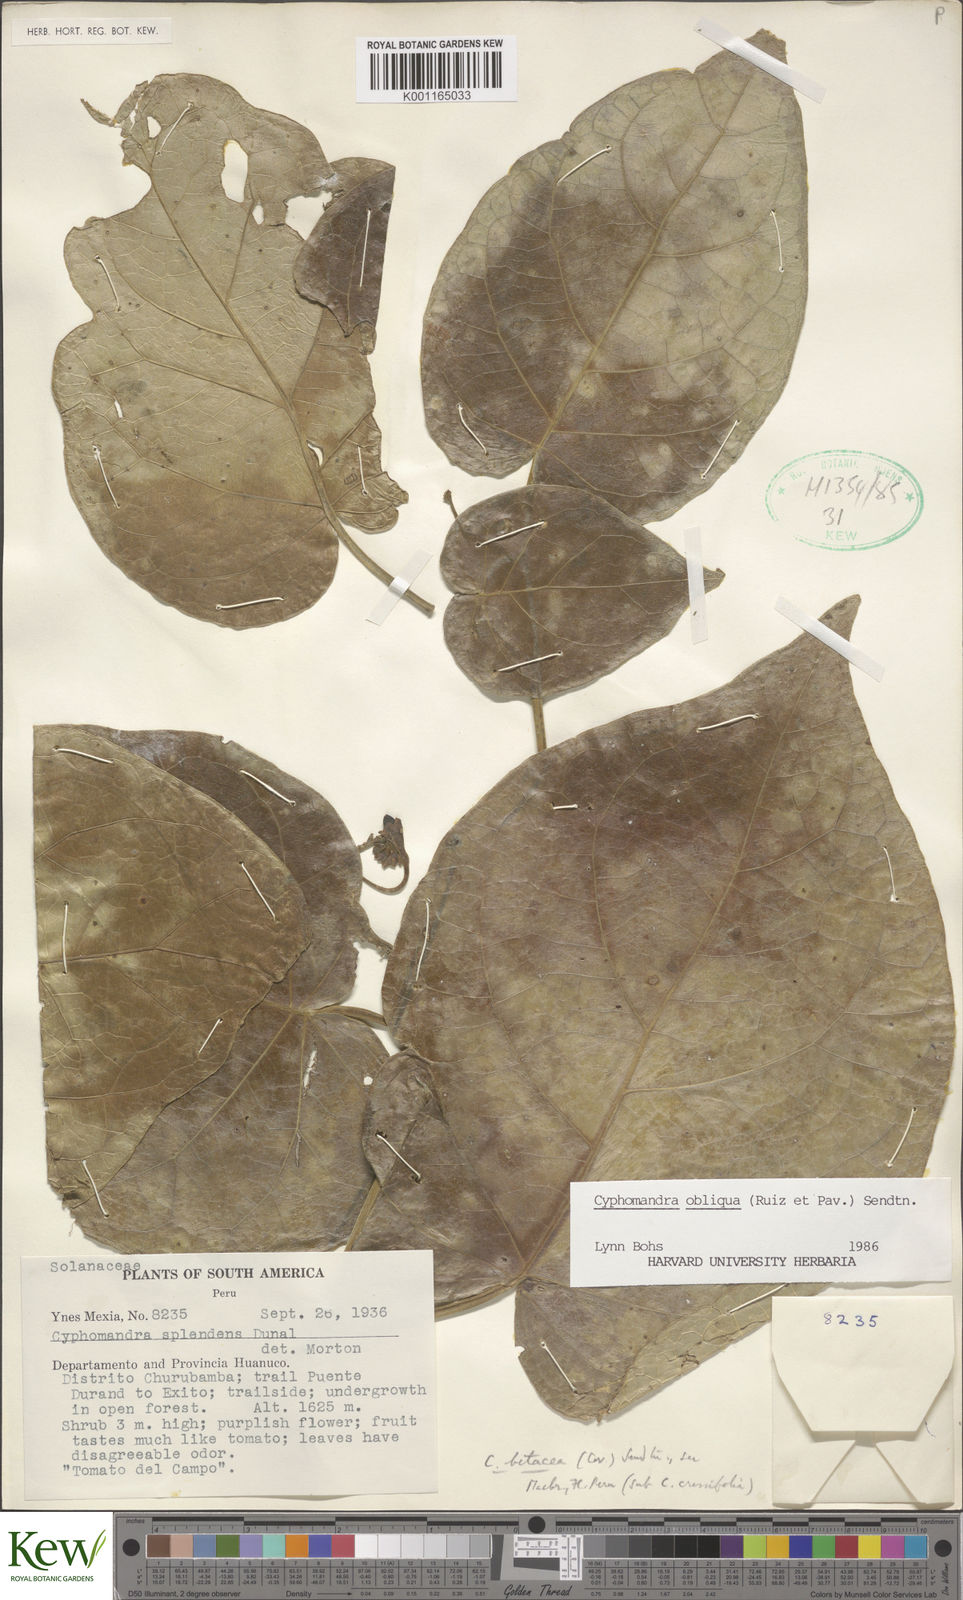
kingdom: Plantae
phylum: Tracheophyta
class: Magnoliopsida
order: Solanales
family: Solanaceae
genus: Solanum
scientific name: Solanum obliquum
